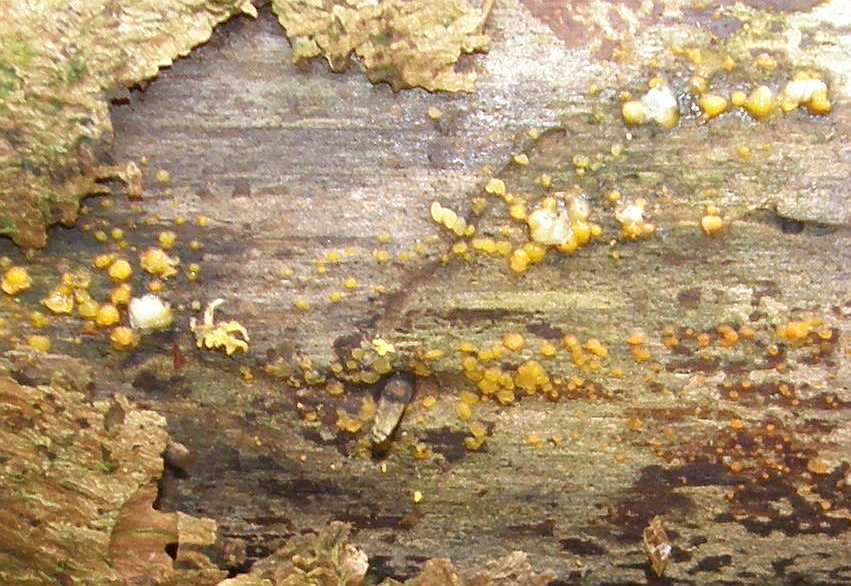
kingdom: Fungi
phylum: Basidiomycota
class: Dacrymycetes
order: Dacrymycetales
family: Dacrymycetaceae
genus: Dacrymyces
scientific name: Dacrymyces stillatus
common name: almindelig tåresvamp
